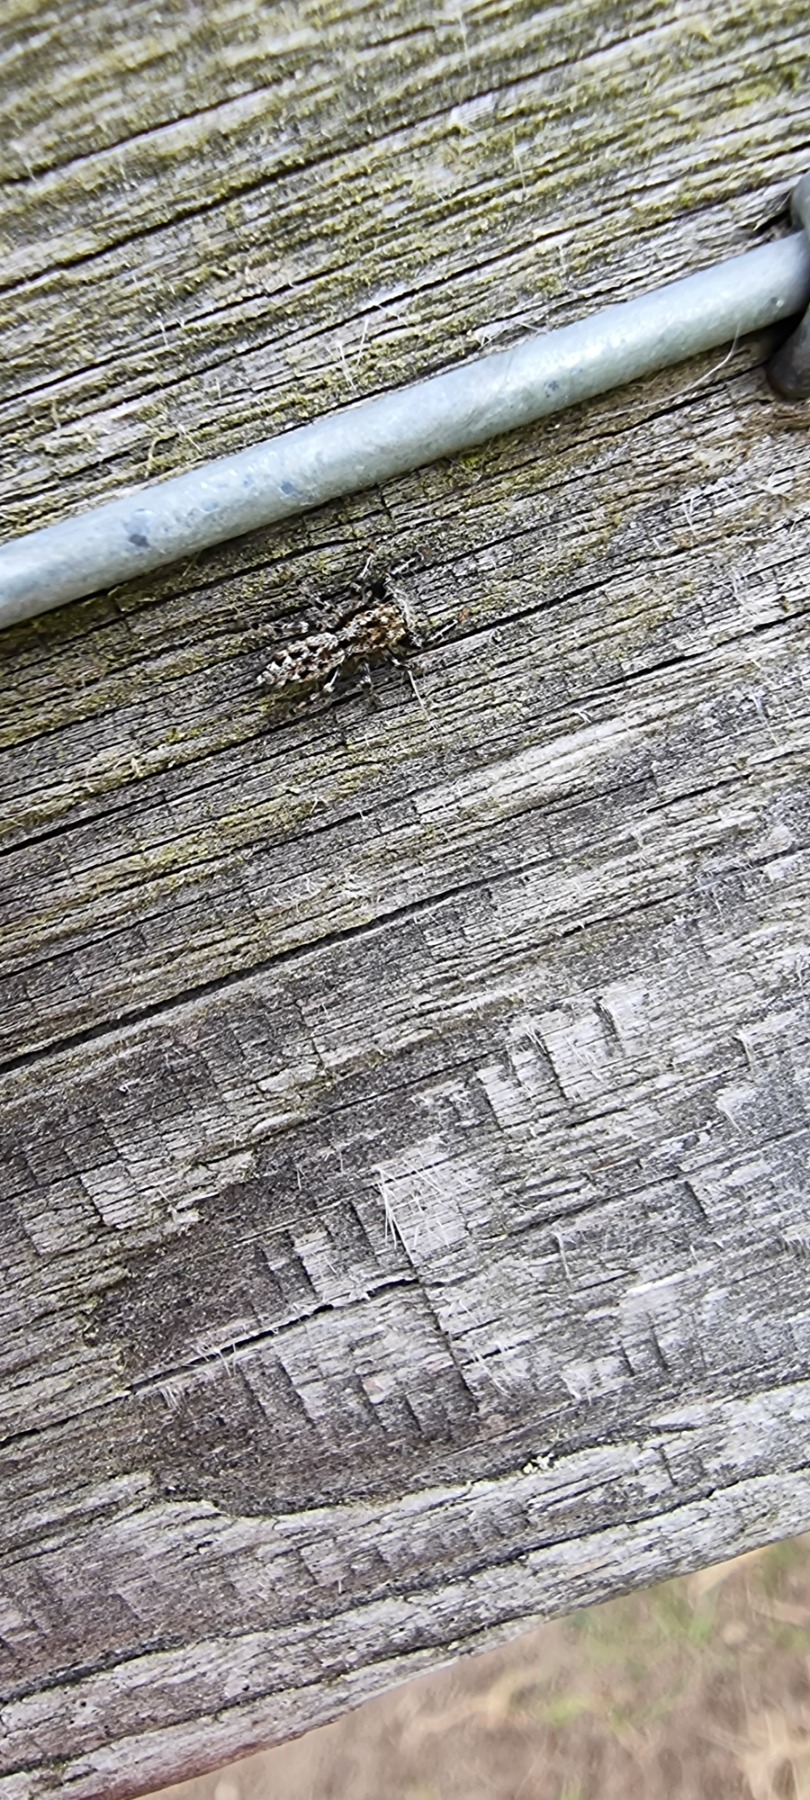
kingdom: Animalia
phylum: Arthropoda
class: Arachnida
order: Araneae
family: Salticidae
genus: Marpissa
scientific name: Marpissa muscosa
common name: Stor springedderkop
